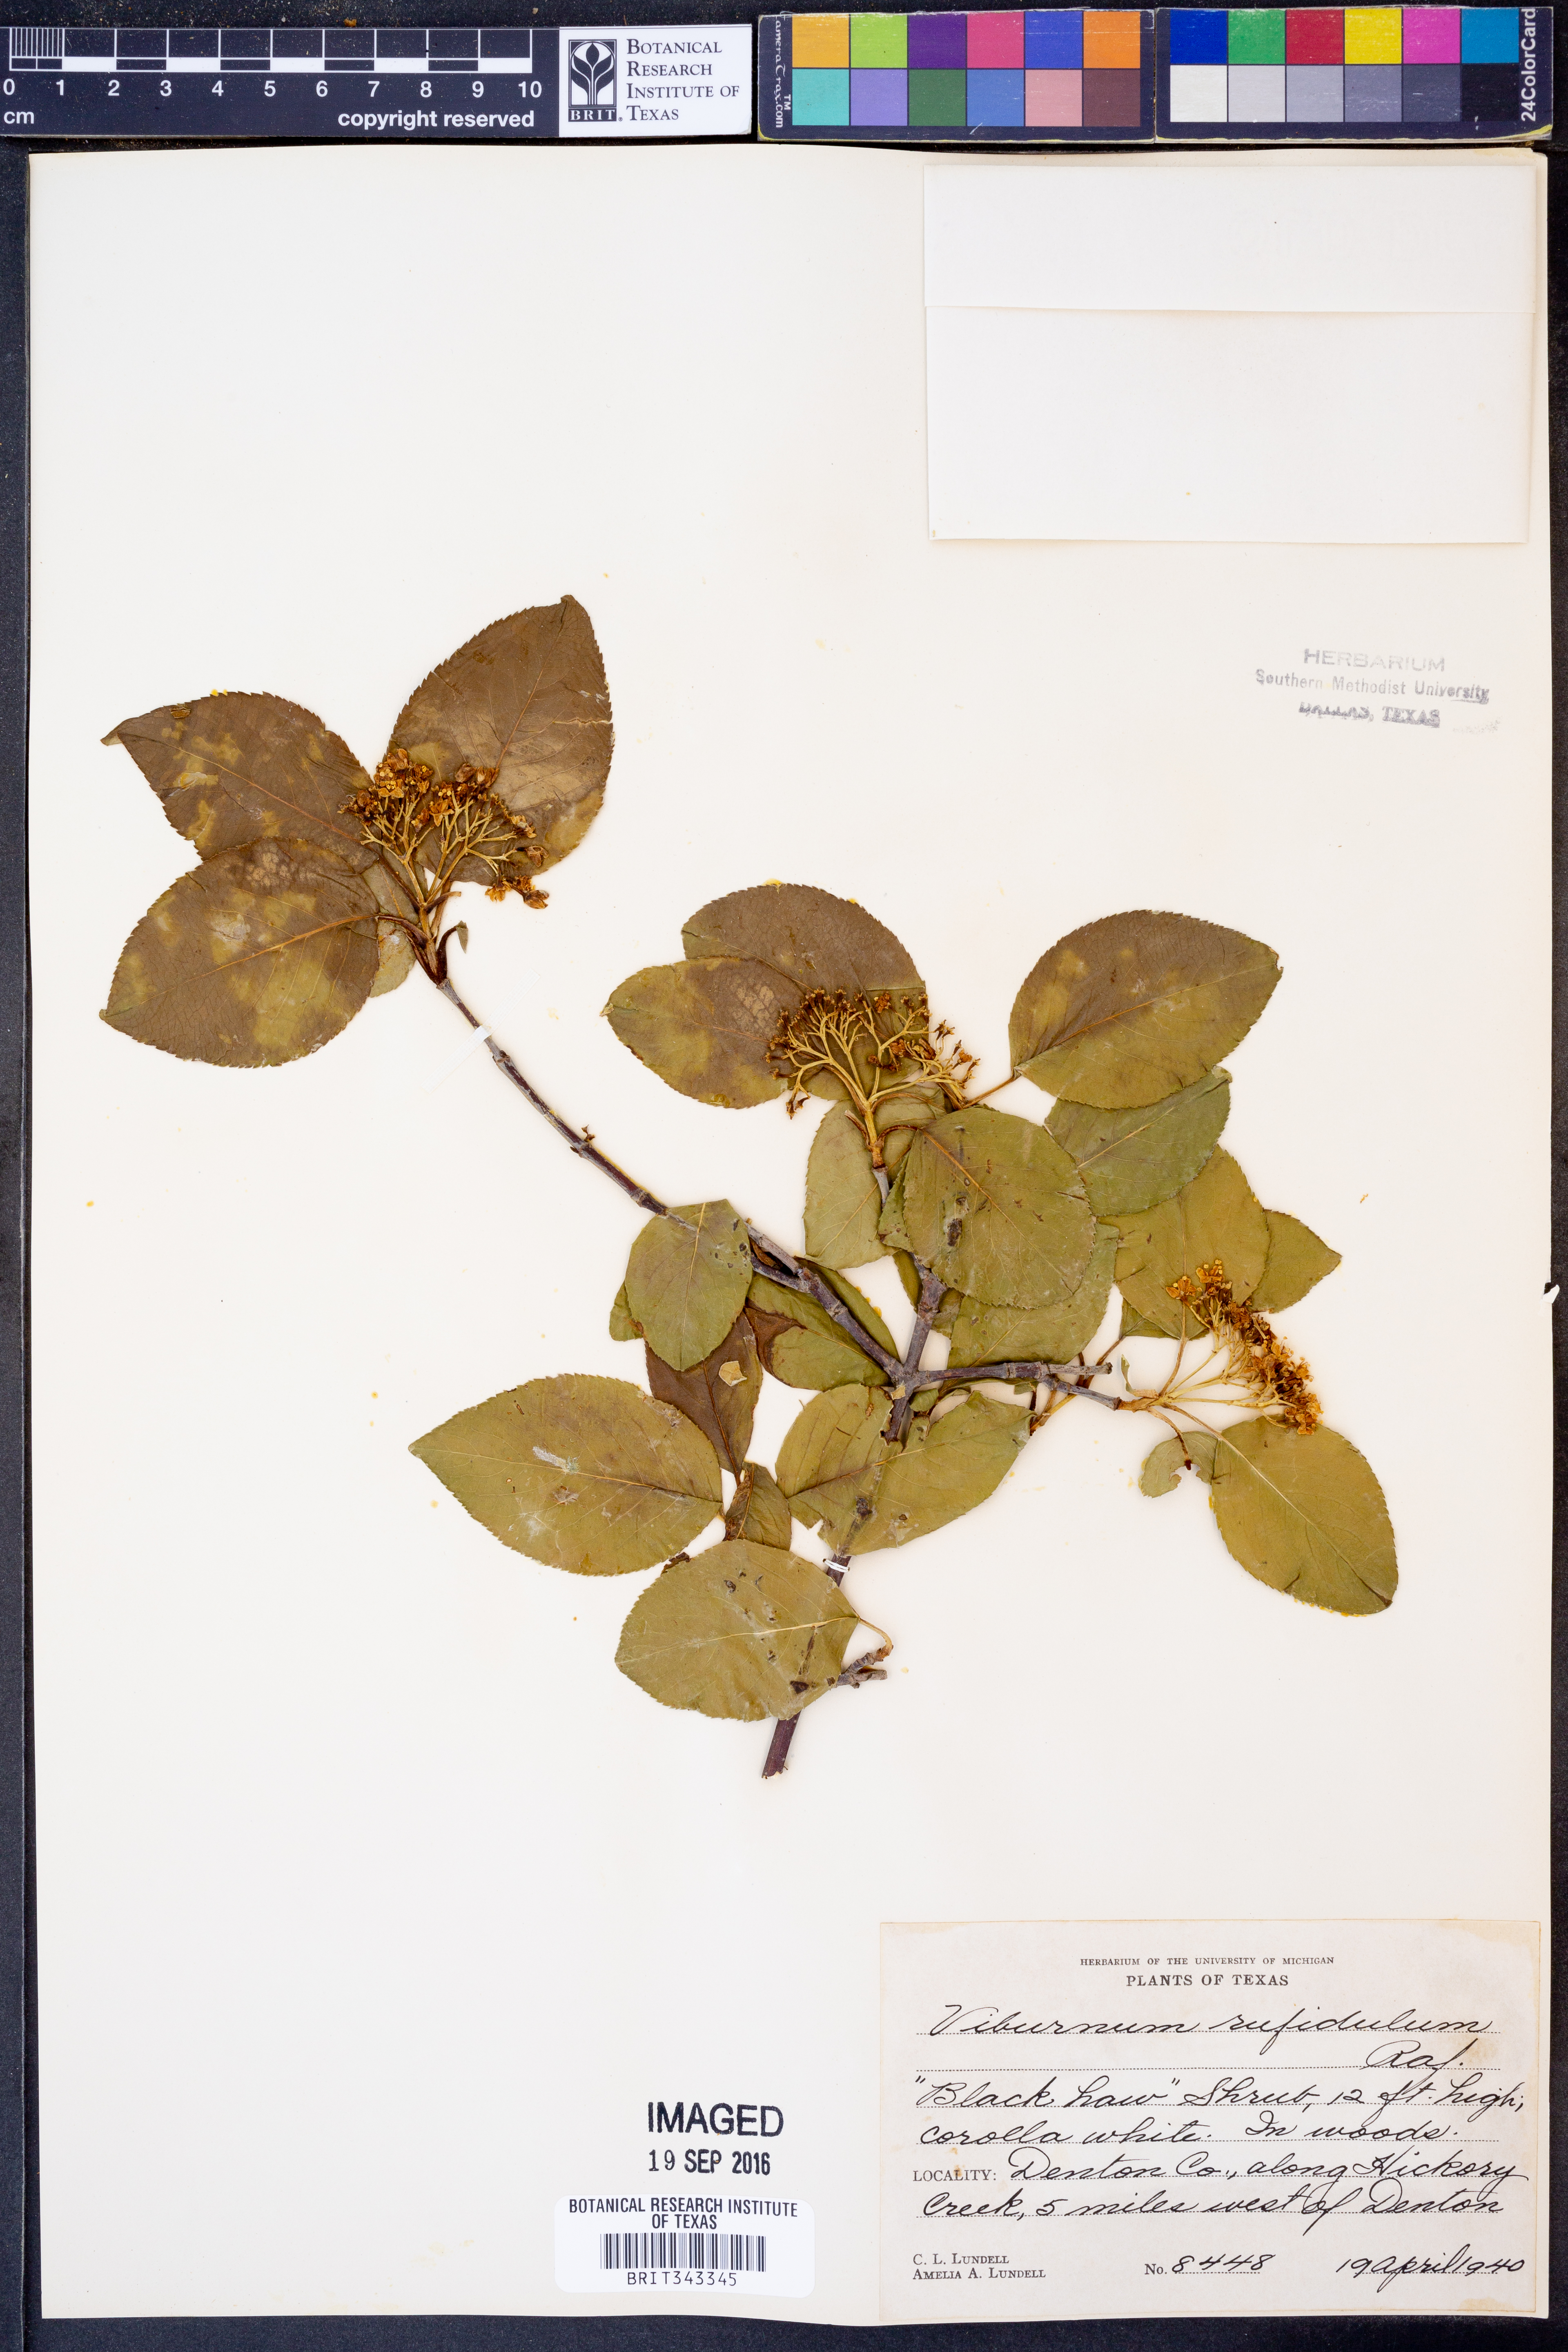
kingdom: Plantae
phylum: Tracheophyta
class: Magnoliopsida
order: Dipsacales
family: Viburnaceae
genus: Viburnum
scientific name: Viburnum rufidulum
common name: Blue haw
